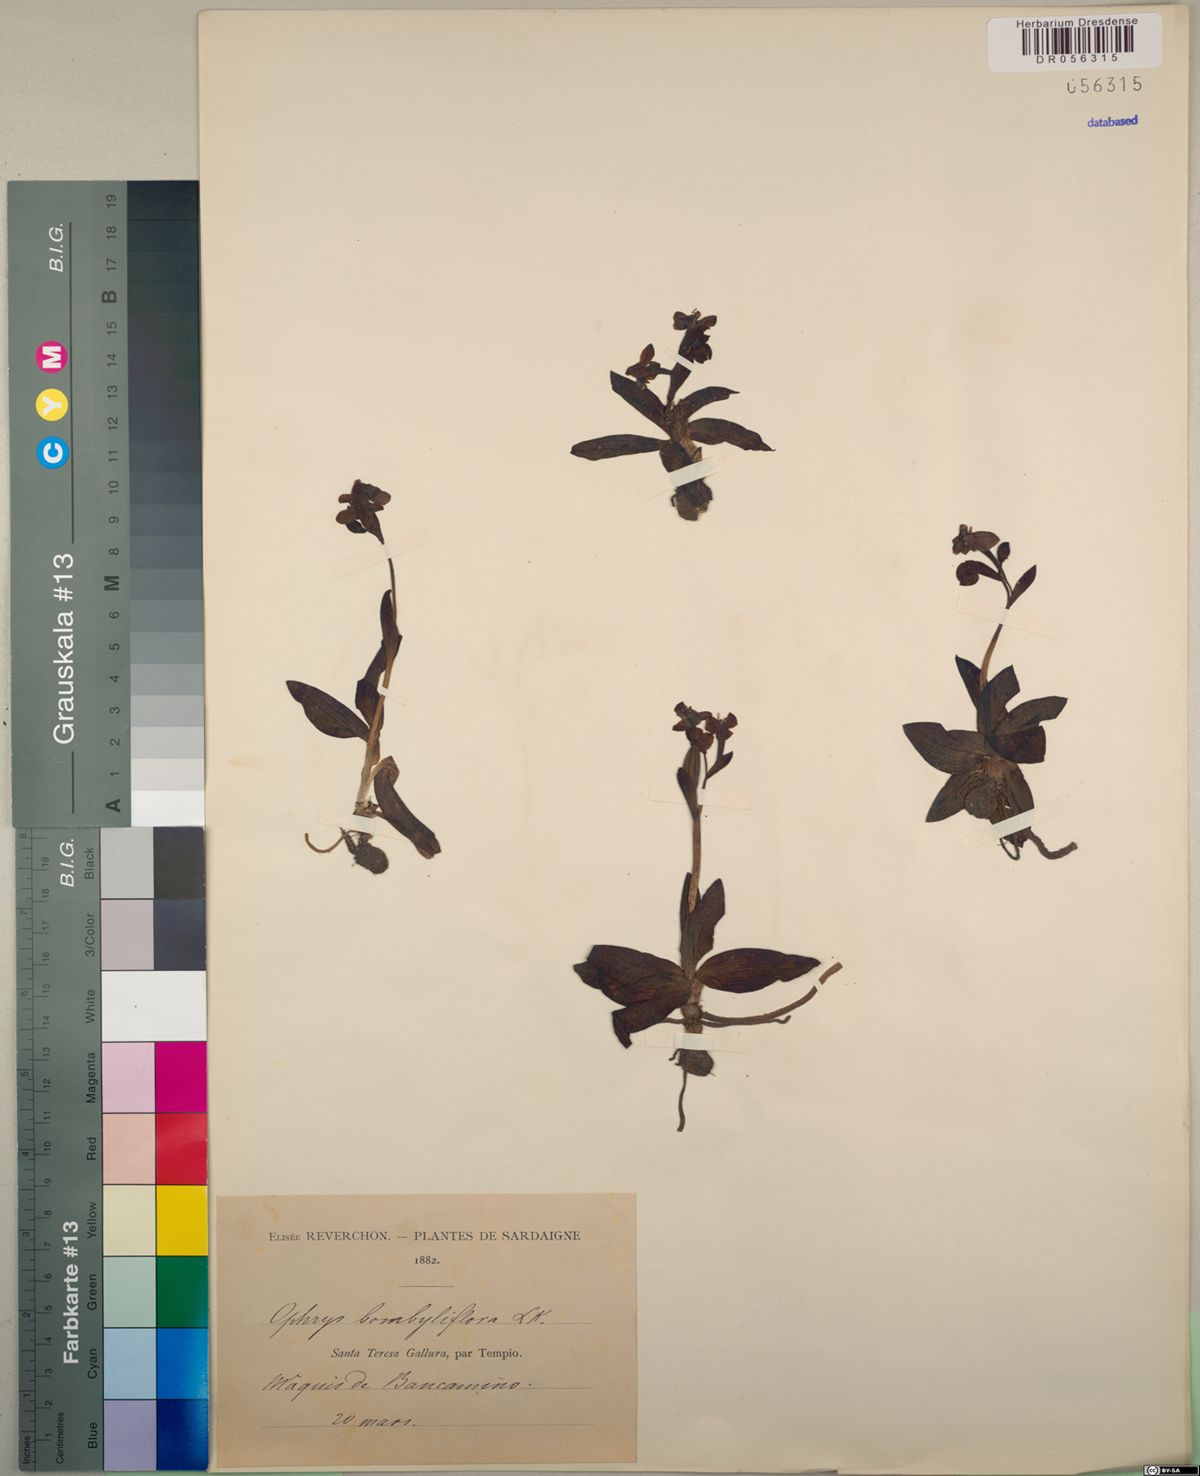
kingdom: Plantae
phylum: Tracheophyta
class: Liliopsida
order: Asparagales
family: Orchidaceae
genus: Ophrys
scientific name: Ophrys bombyliflora
